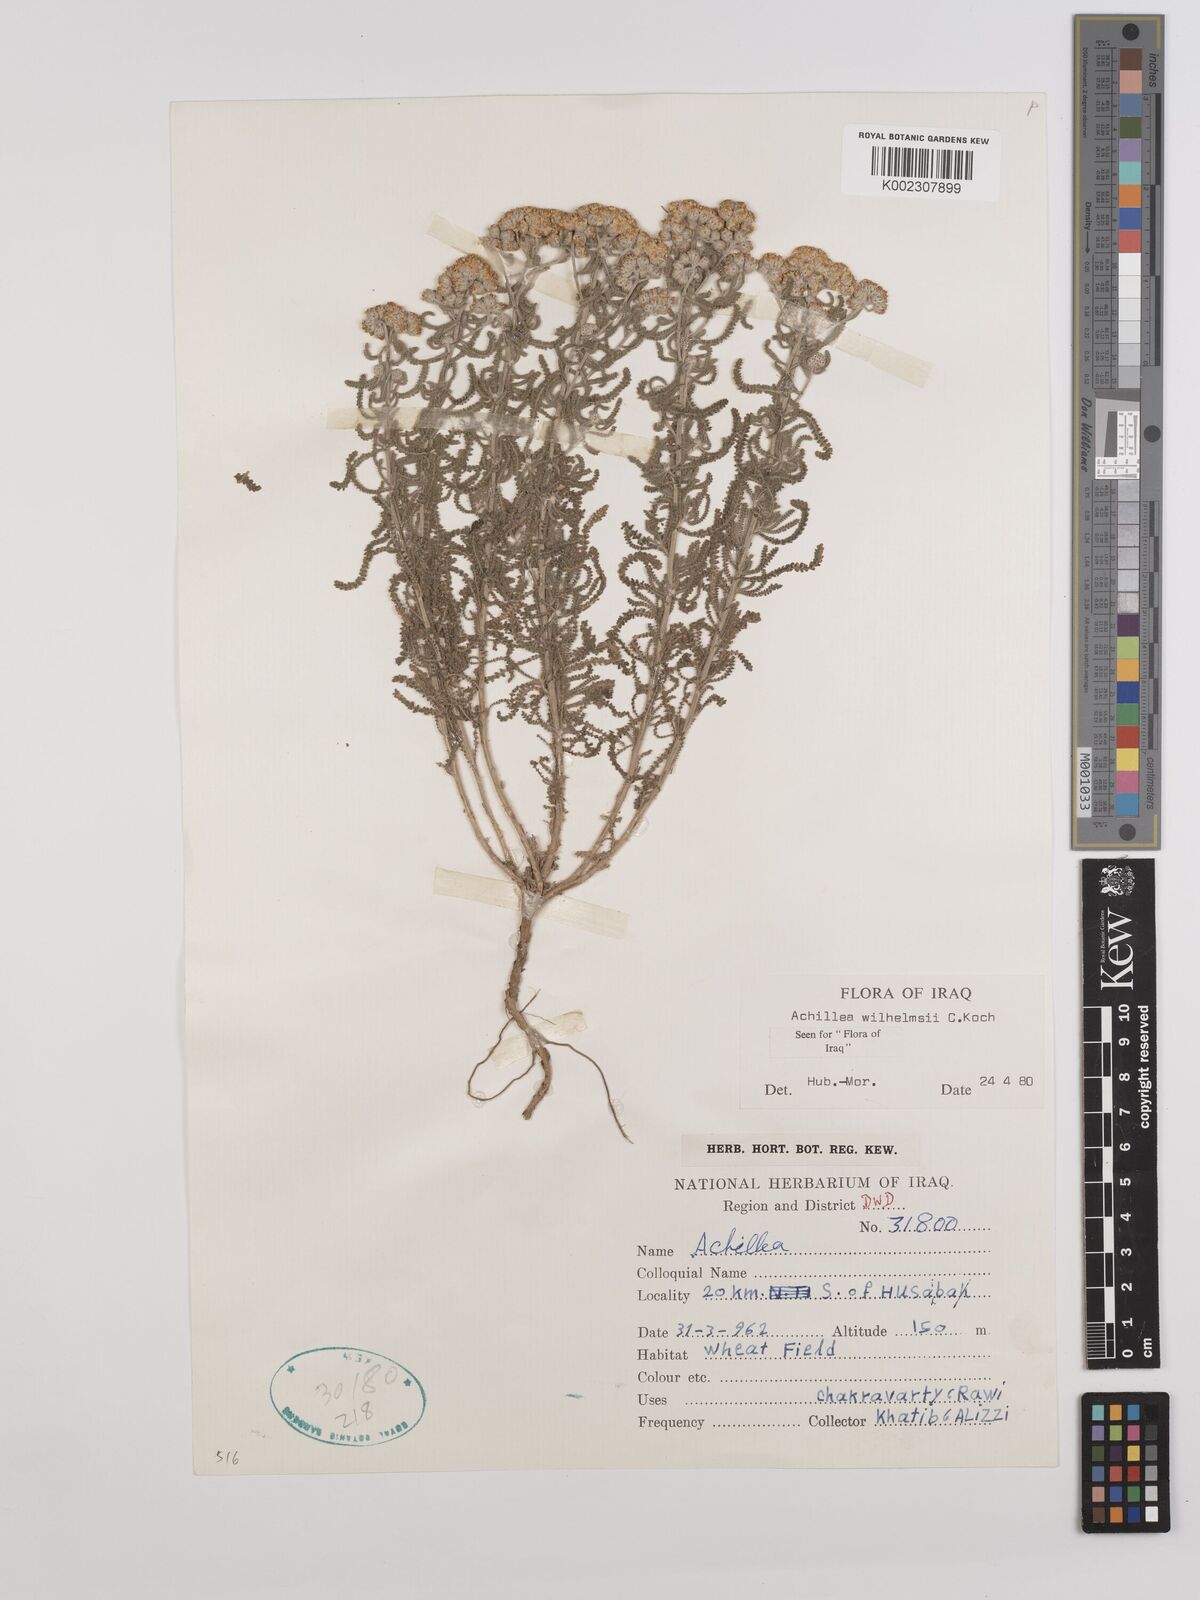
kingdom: Plantae
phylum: Tracheophyta
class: Magnoliopsida
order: Asterales
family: Asteraceae
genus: Achillea
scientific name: Achillea wilhelmsii
